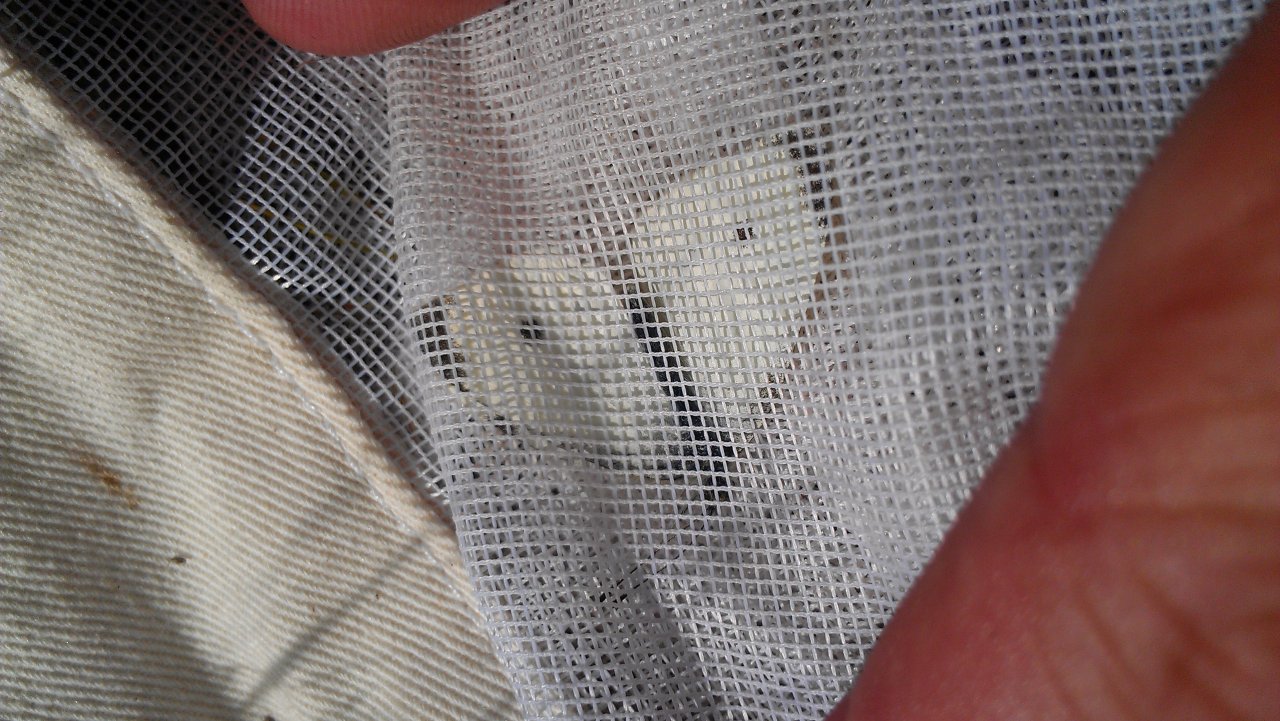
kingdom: Animalia
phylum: Arthropoda
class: Insecta
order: Lepidoptera
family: Pieridae
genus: Pieris
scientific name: Pieris rapae
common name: Cabbage White
